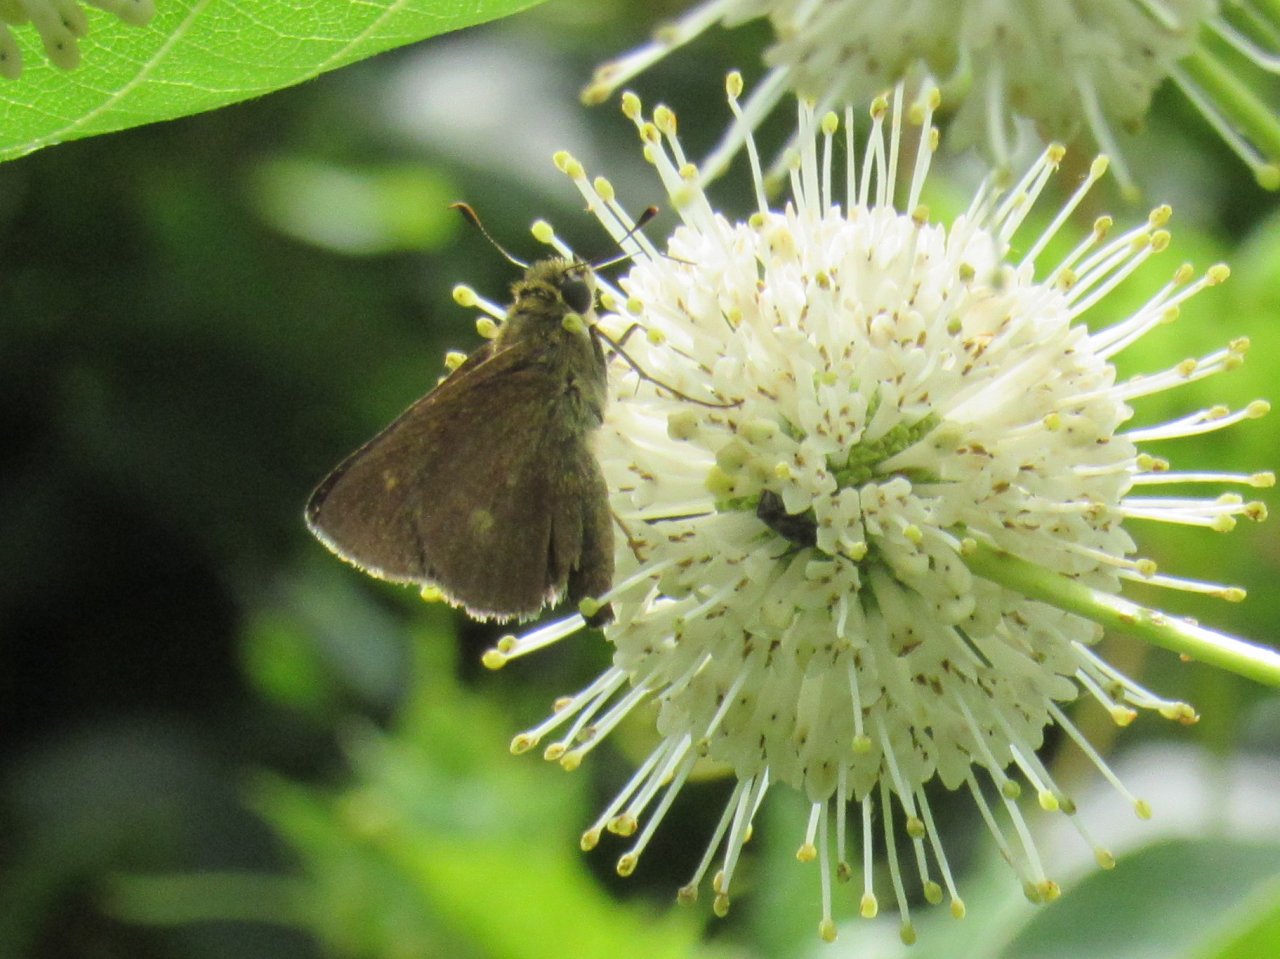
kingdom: Animalia
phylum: Arthropoda
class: Insecta
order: Lepidoptera
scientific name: Lepidoptera
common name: Butterflies
